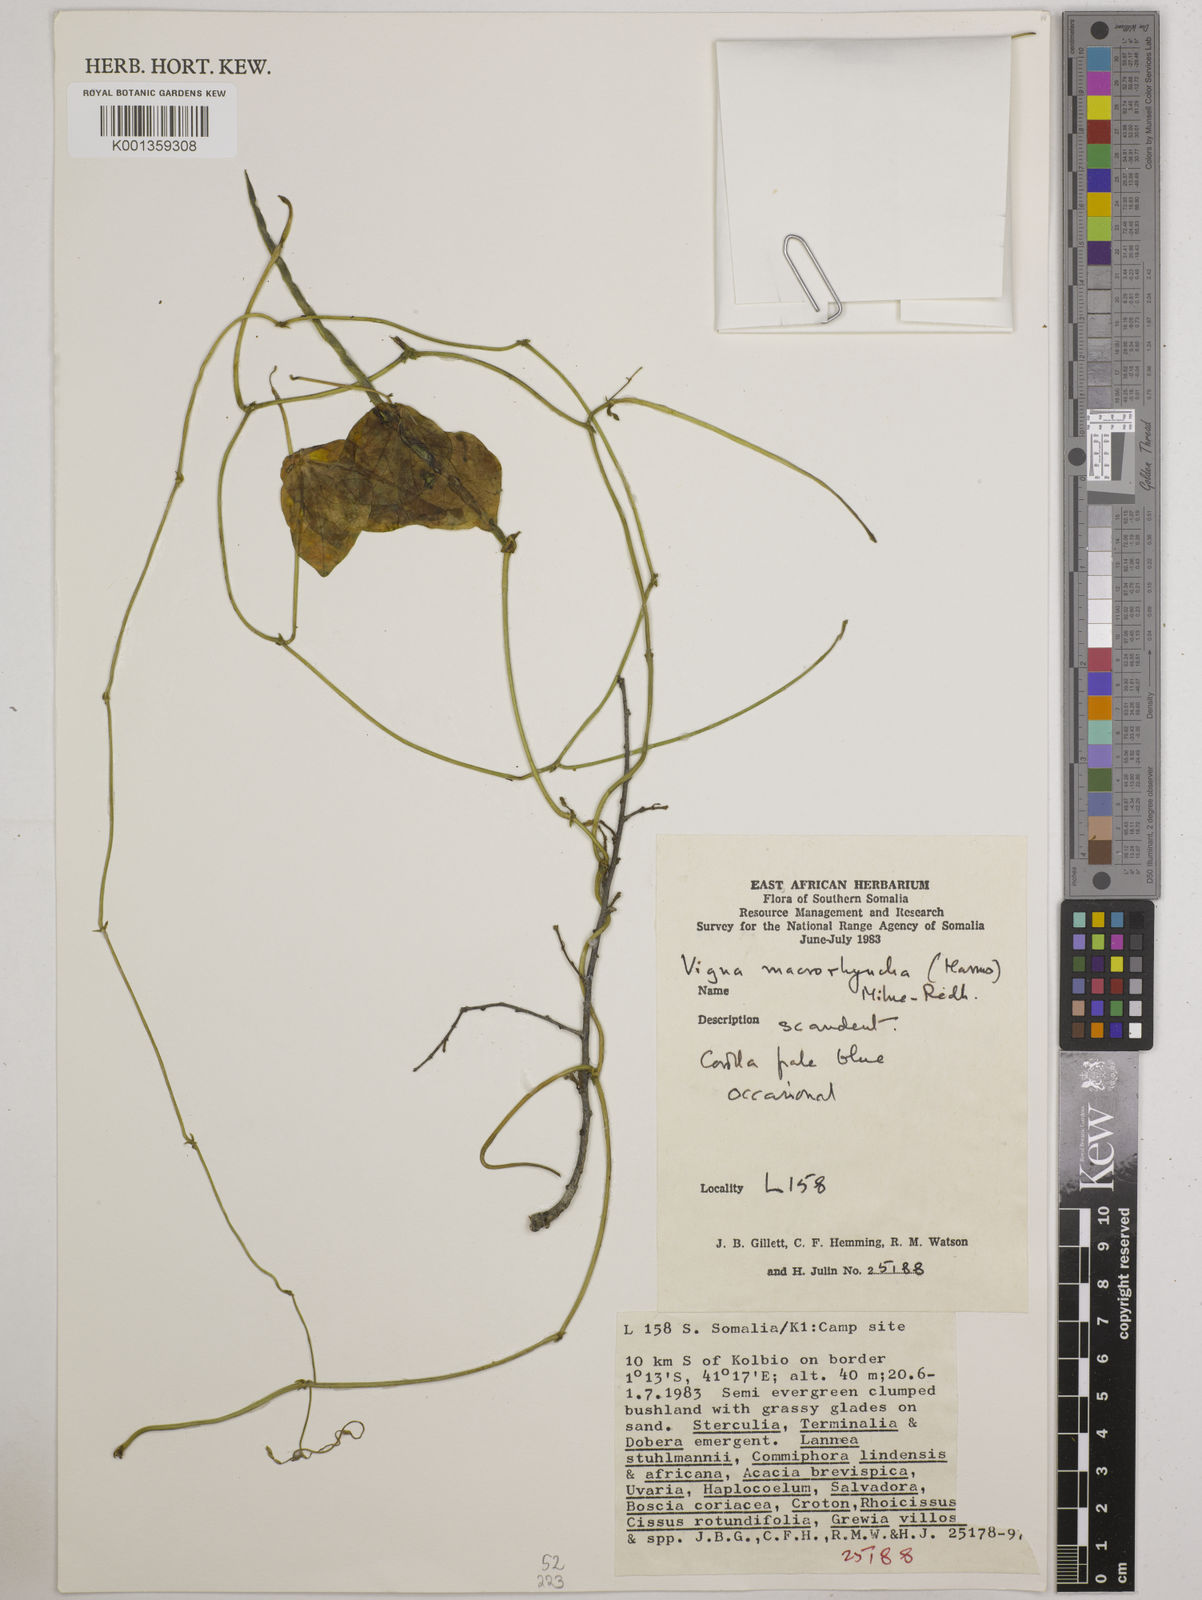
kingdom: Plantae
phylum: Tracheophyta
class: Magnoliopsida
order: Fabales
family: Fabaceae
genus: Wajira
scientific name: Wajira grahamiana
